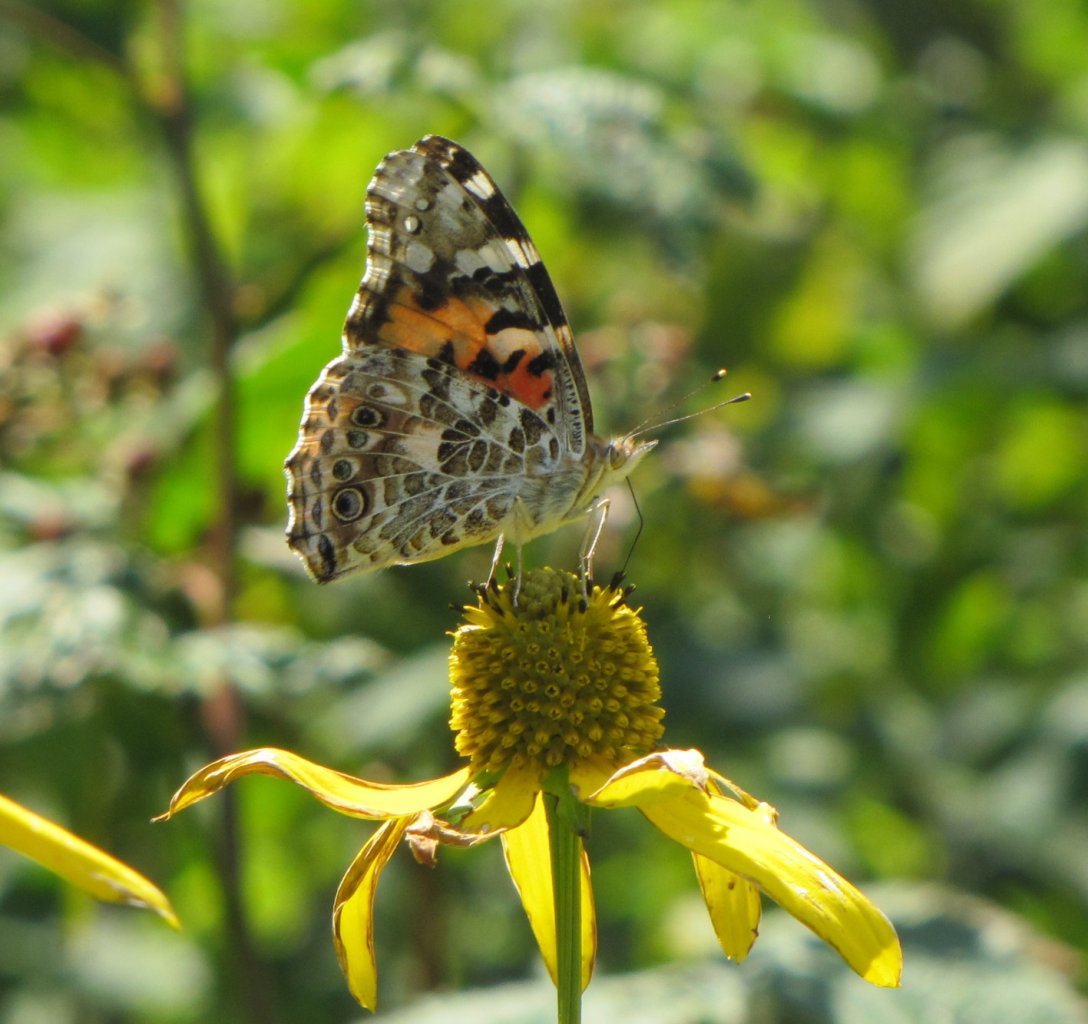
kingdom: Animalia
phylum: Arthropoda
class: Insecta
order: Lepidoptera
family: Nymphalidae
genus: Vanessa
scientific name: Vanessa cardui
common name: Painted Lady
